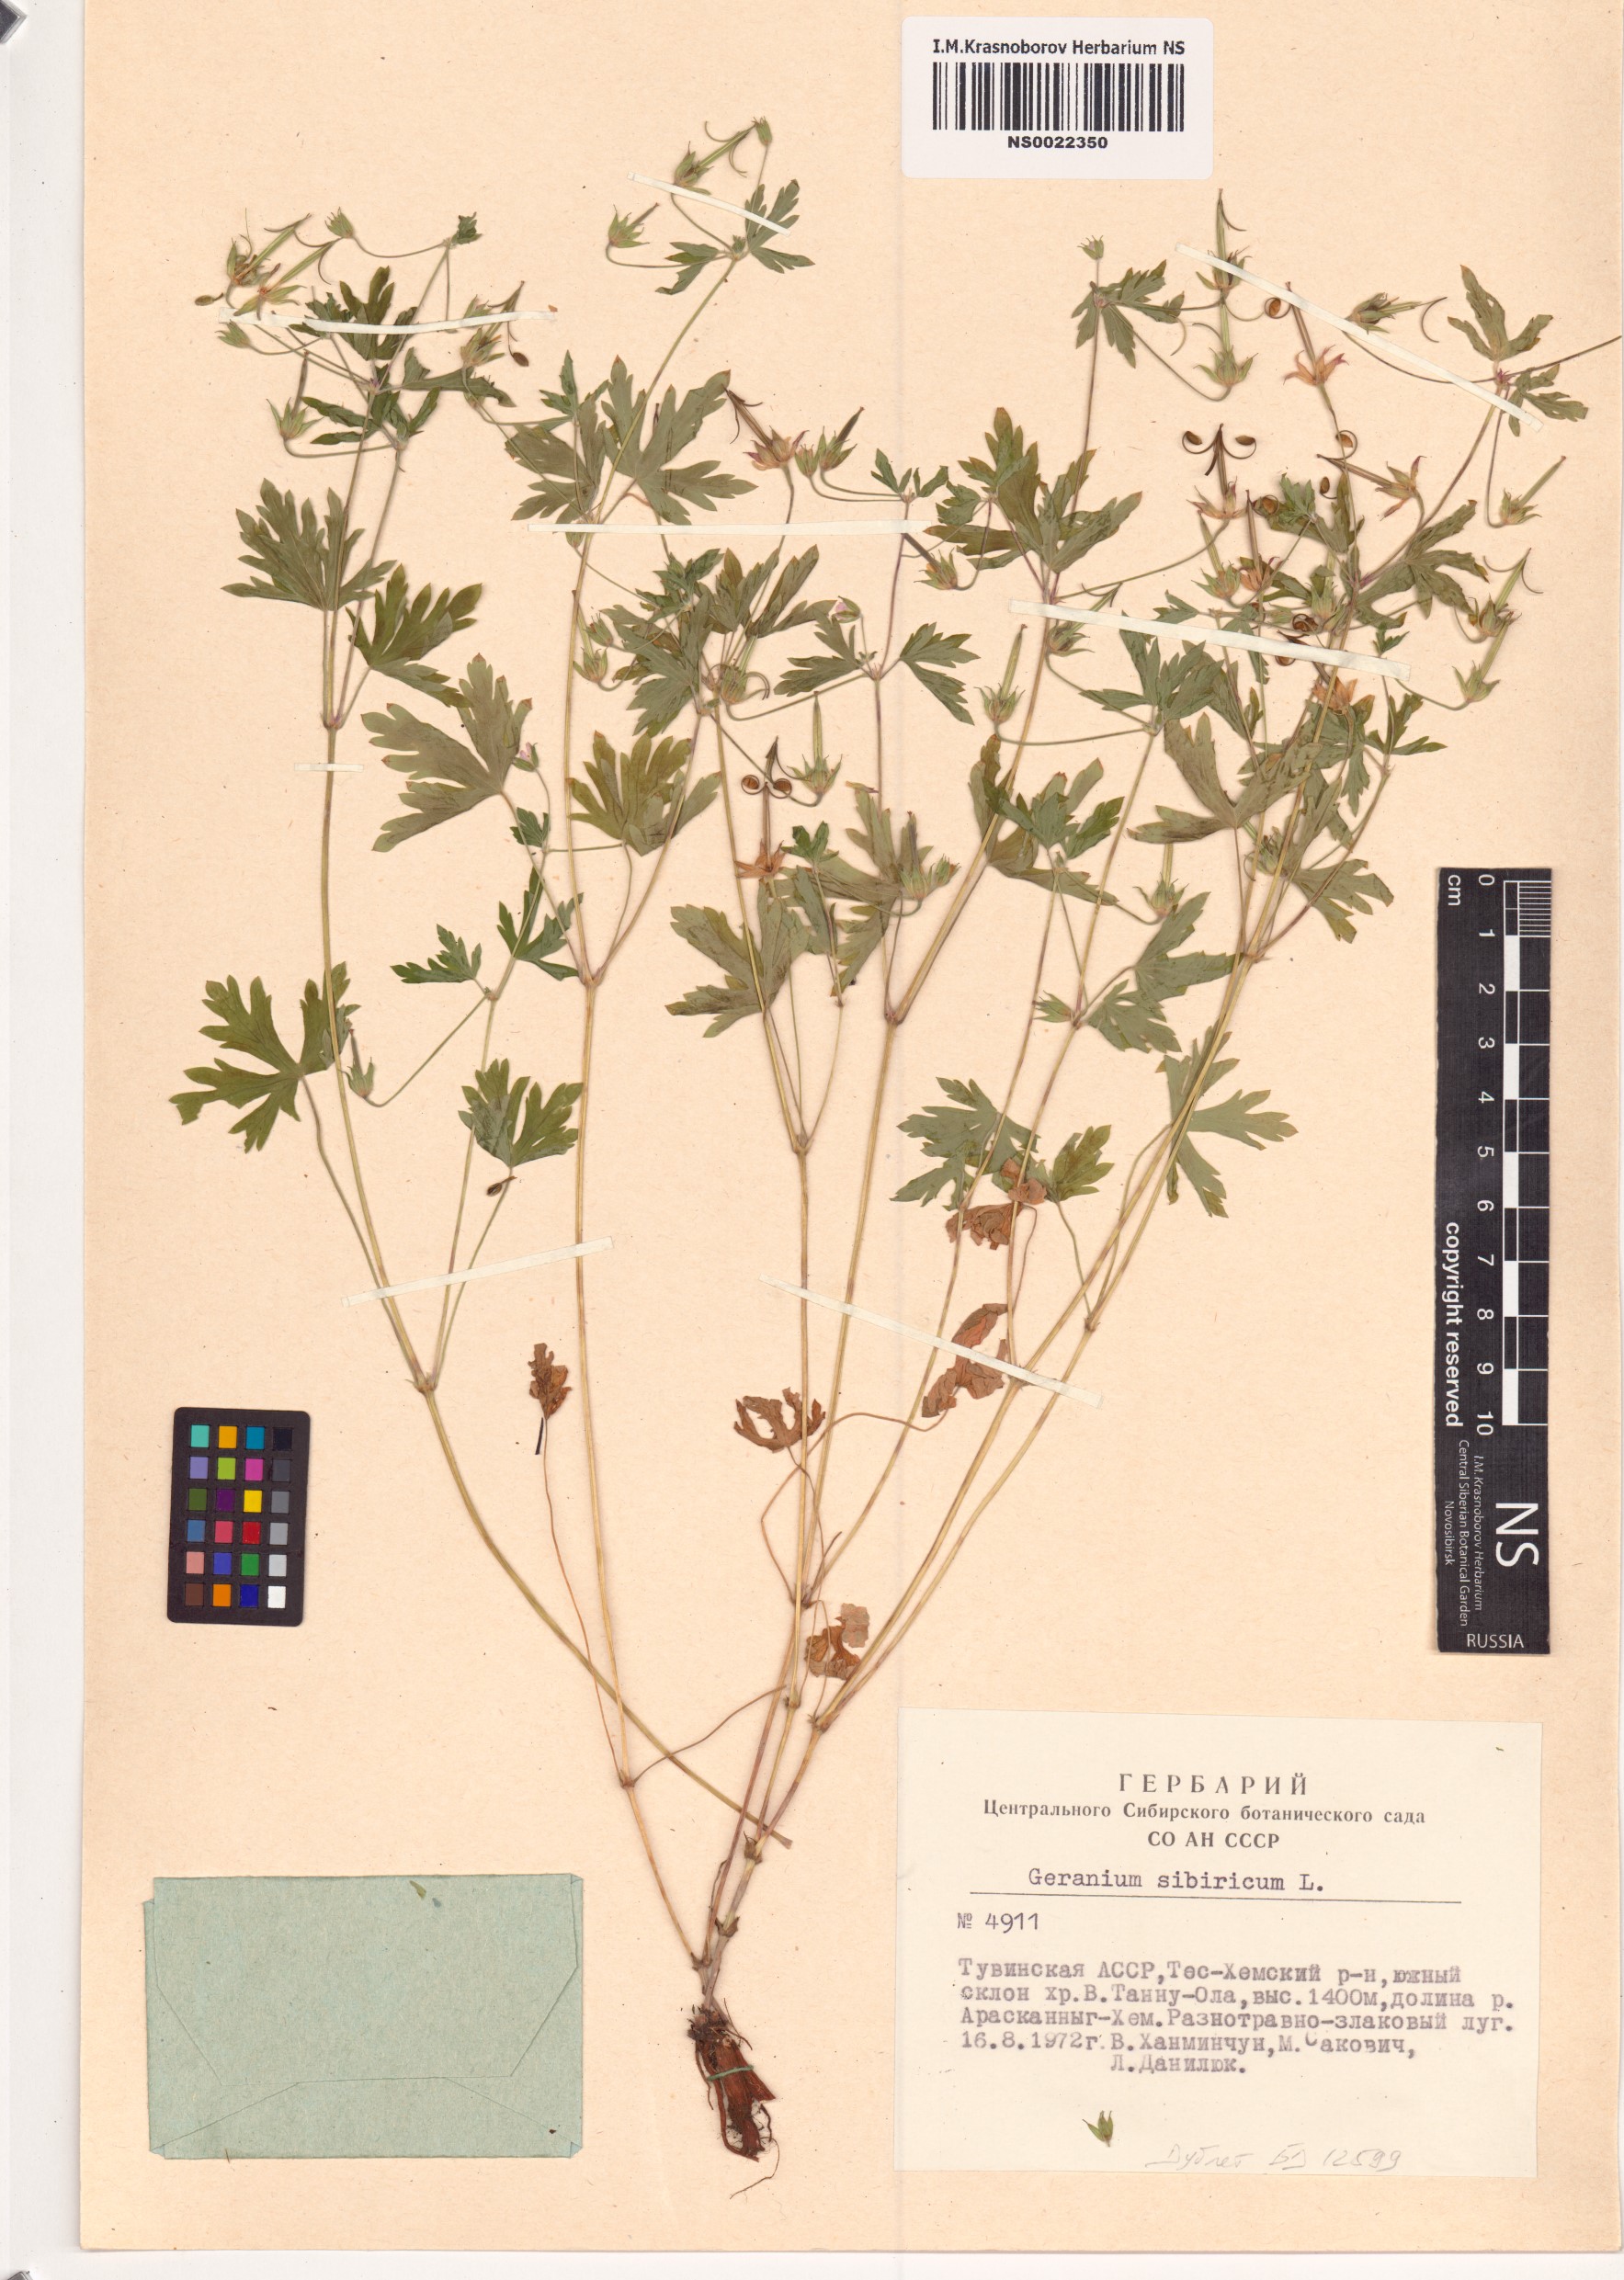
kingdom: Plantae
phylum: Tracheophyta
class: Magnoliopsida
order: Geraniales
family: Geraniaceae
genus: Geranium
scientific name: Geranium sibiricum
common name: Siberian crane's-bill
